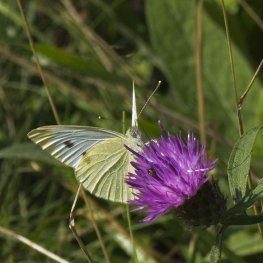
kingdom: Animalia
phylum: Arthropoda
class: Insecta
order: Lepidoptera
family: Pieridae
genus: Pieris
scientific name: Pieris rapae
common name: Cabbage White
